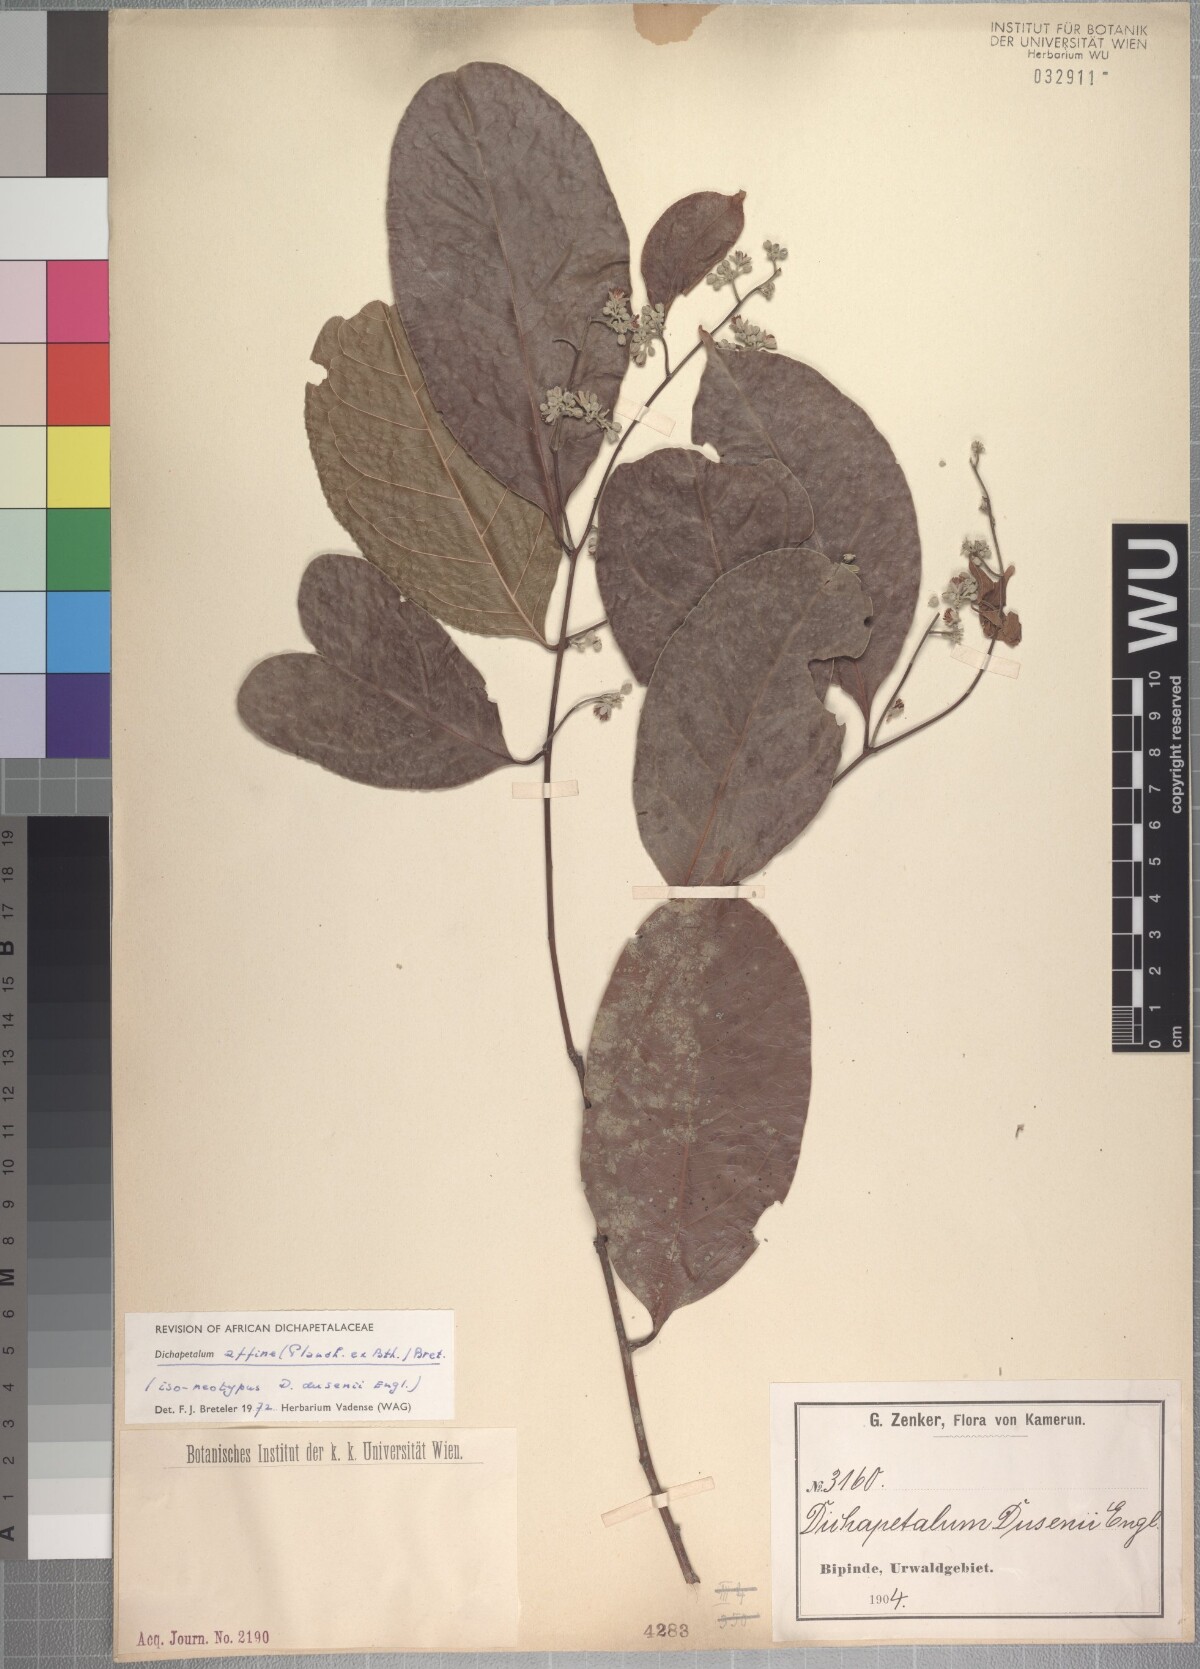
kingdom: Plantae
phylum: Tracheophyta
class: Magnoliopsida
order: Malpighiales
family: Dichapetalaceae
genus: Dichapetalum
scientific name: Dichapetalum affine
